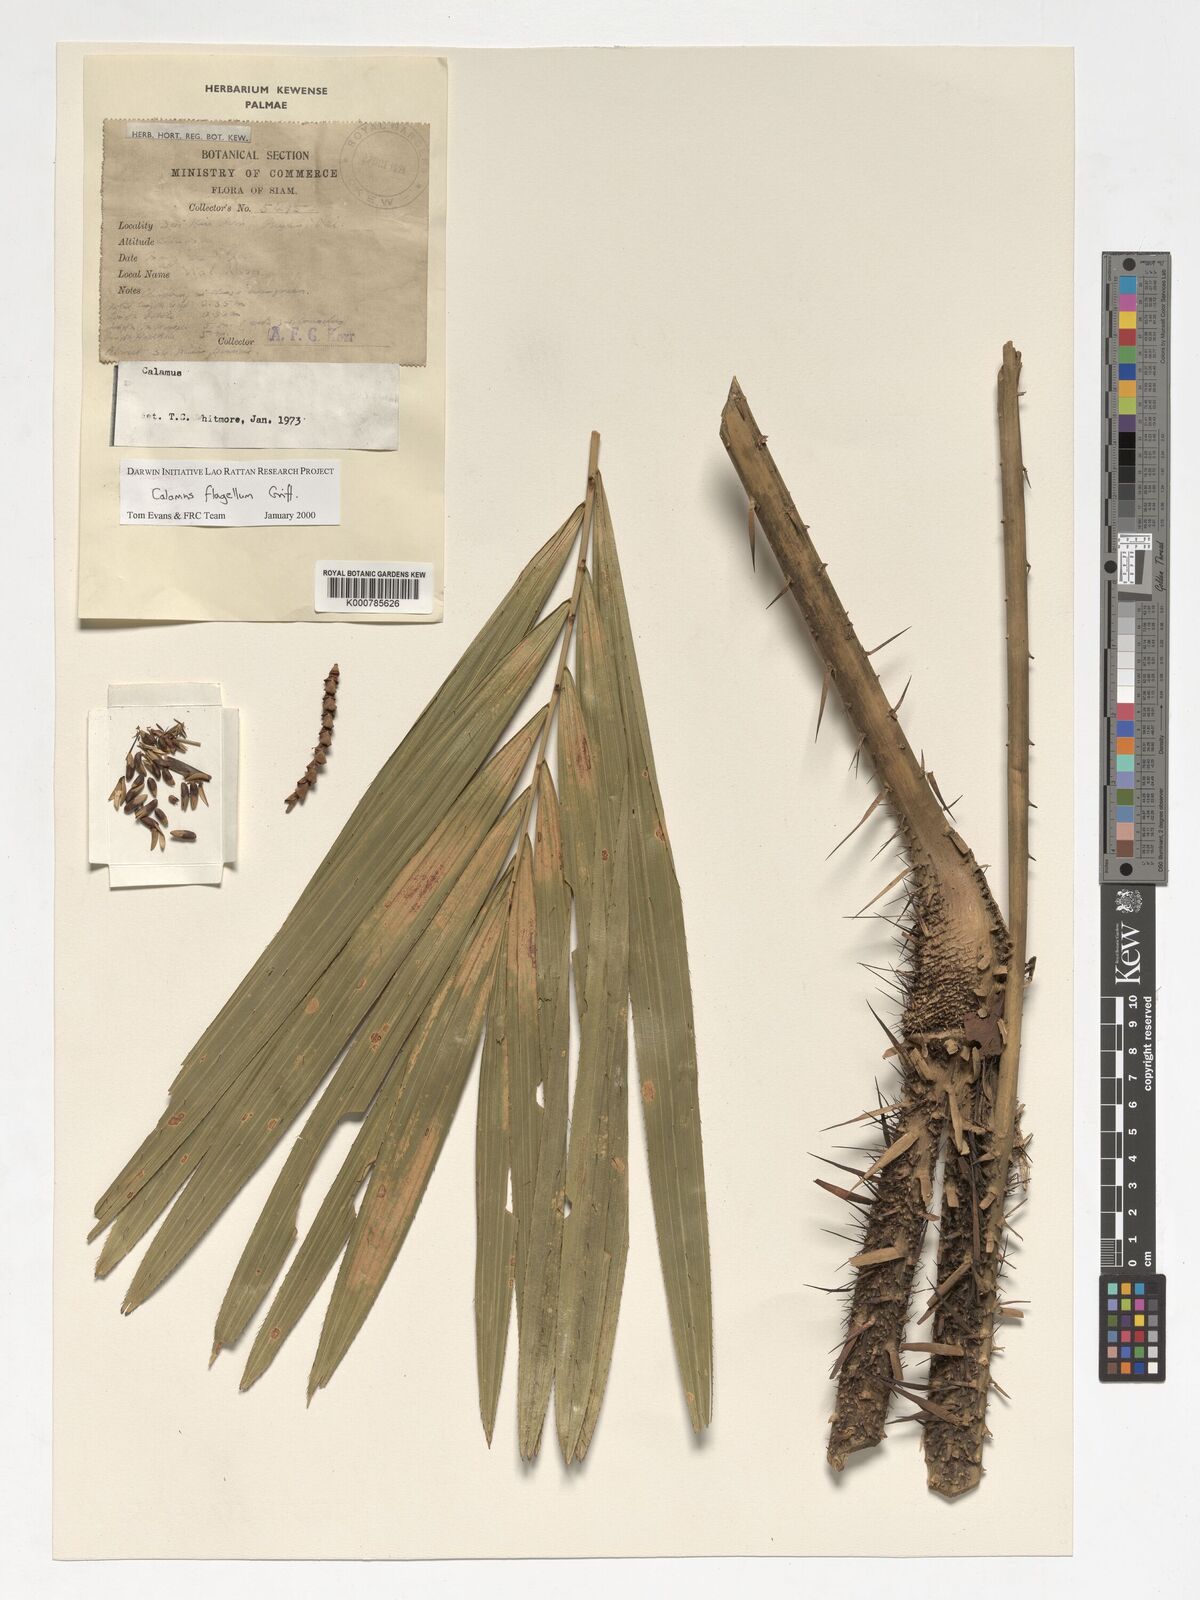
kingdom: Plantae
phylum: Tracheophyta
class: Liliopsida
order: Arecales
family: Arecaceae
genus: Calamus
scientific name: Calamus flagellum
